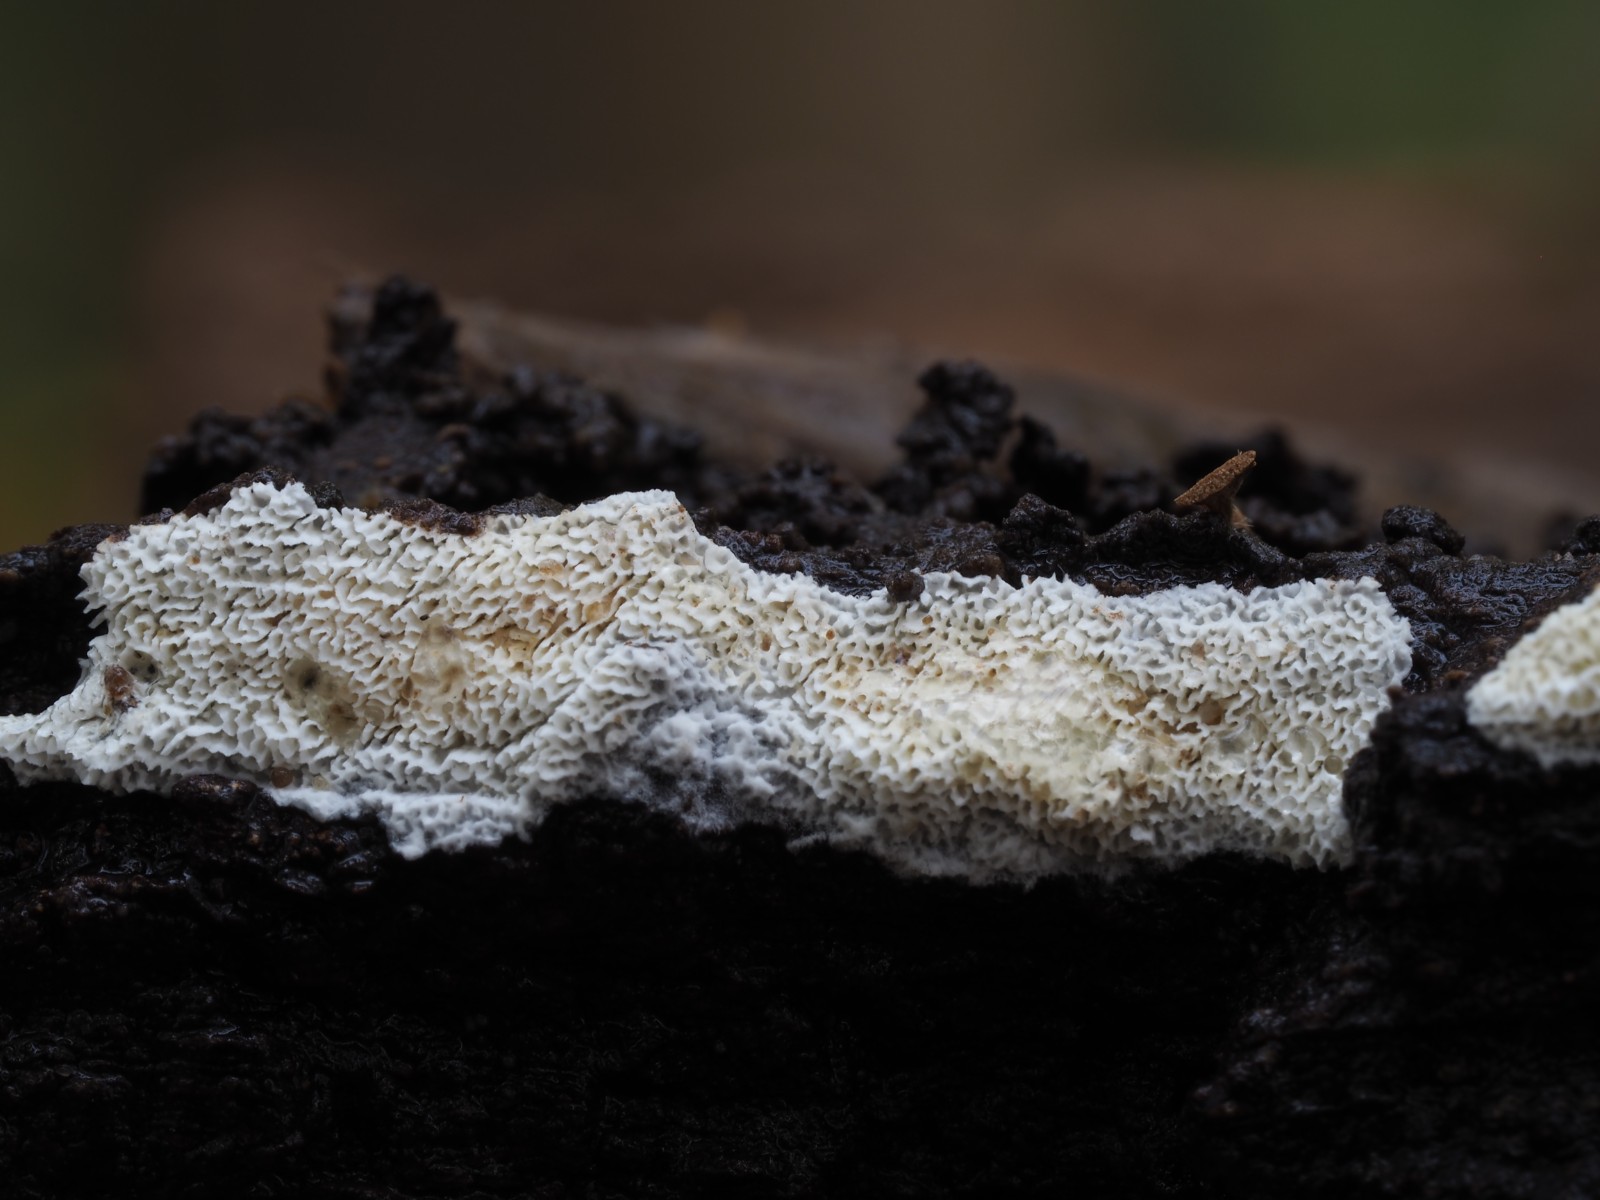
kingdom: Fungi
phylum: Basidiomycota
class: Agaricomycetes
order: Hymenochaetales
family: Schizoporaceae
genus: Xylodon
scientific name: Xylodon subtropicus
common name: labyrint-tandsvamp
